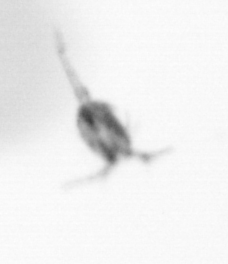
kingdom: Animalia
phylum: Arthropoda
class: Copepoda
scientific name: Copepoda
